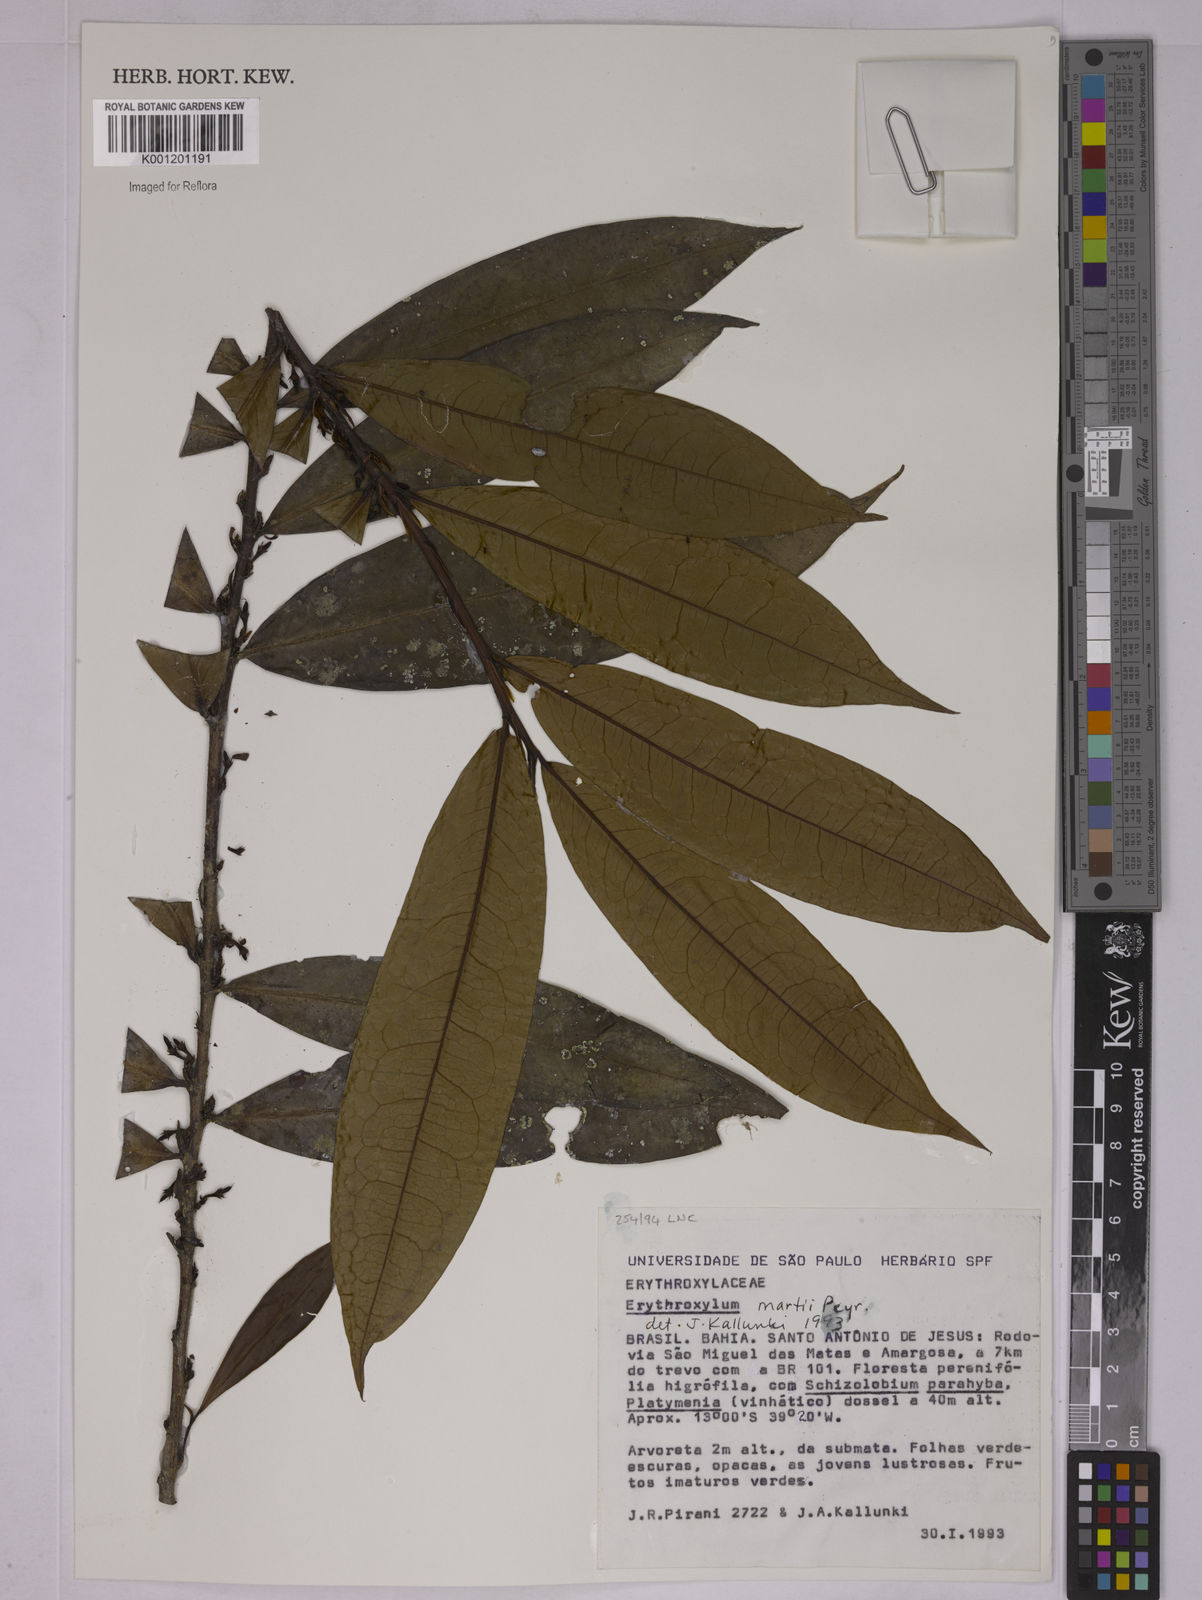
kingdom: Plantae
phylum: Tracheophyta
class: Magnoliopsida
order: Malpighiales
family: Erythroxylaceae
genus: Erythroxylum
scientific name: Erythroxylum martii
